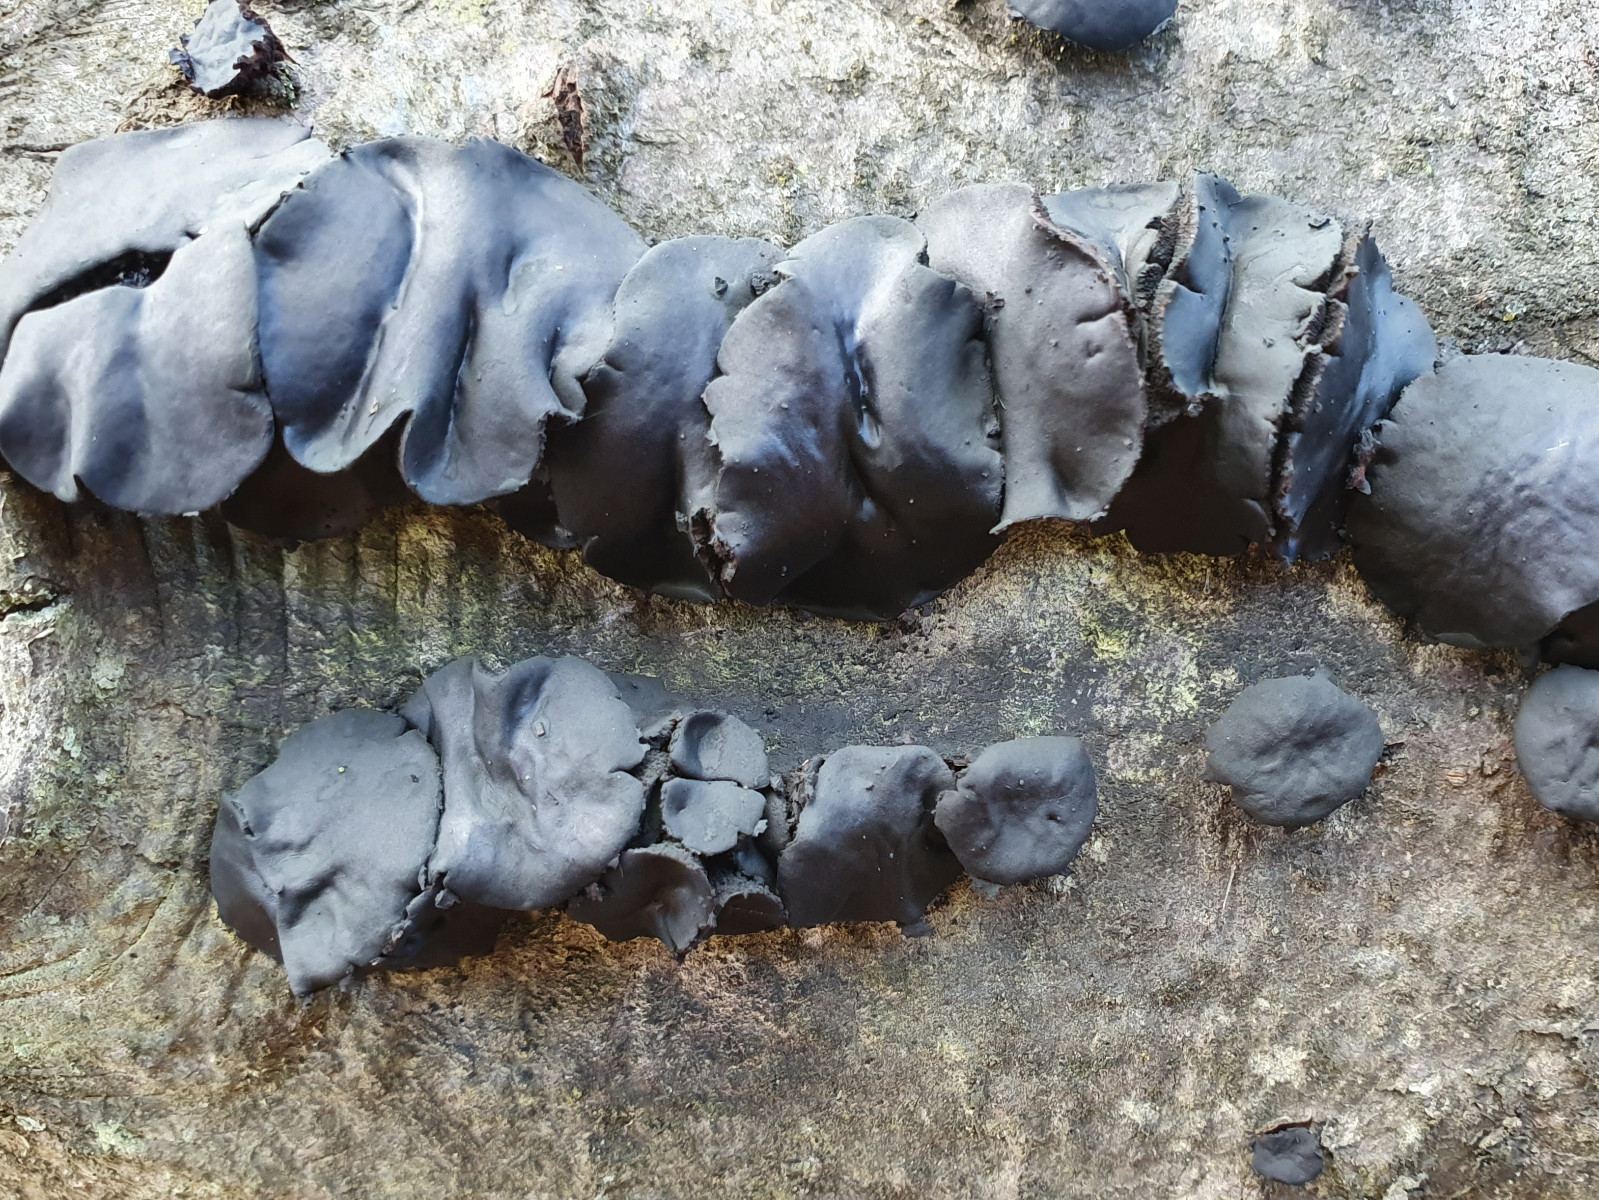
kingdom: Fungi
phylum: Ascomycota
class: Leotiomycetes
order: Phacidiales
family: Phacidiaceae
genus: Bulgaria
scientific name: Bulgaria inquinans
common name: afsmittende topsvamp
